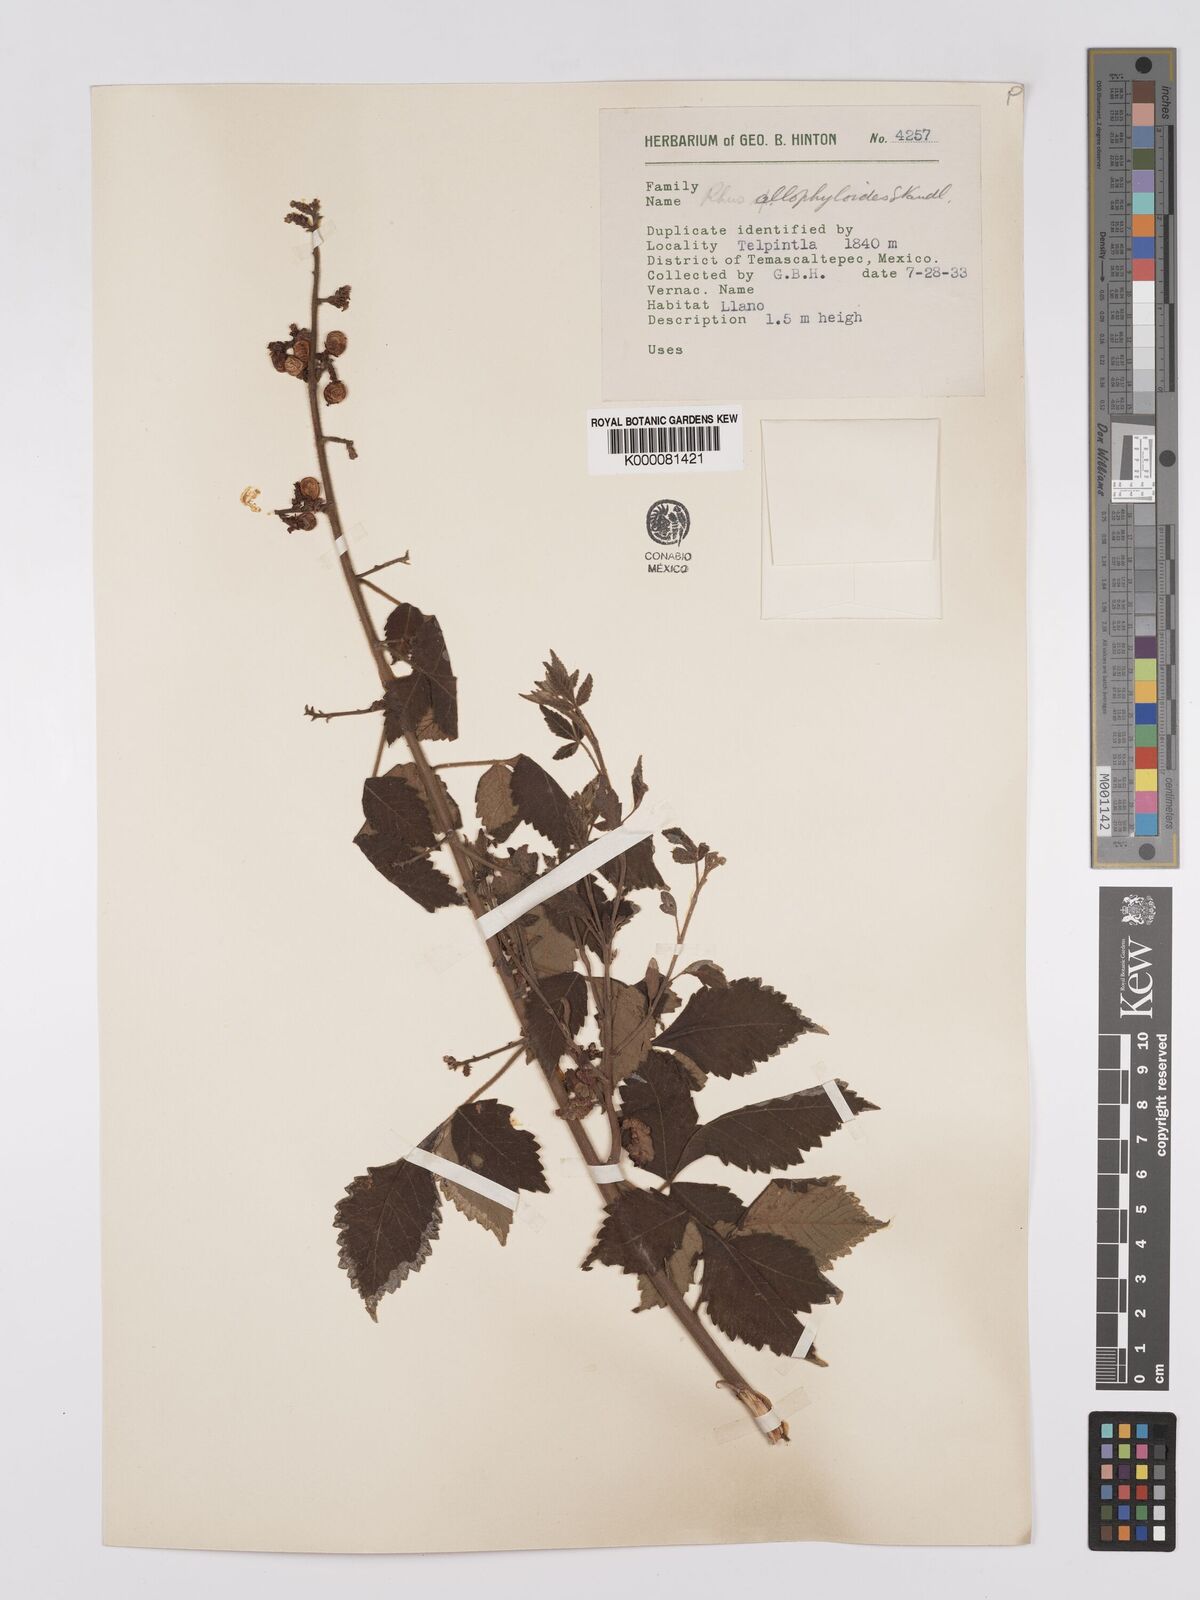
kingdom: Plantae
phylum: Tracheophyta
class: Magnoliopsida
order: Sapindales
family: Anacardiaceae
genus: Rhus
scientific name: Rhus allophyloides
